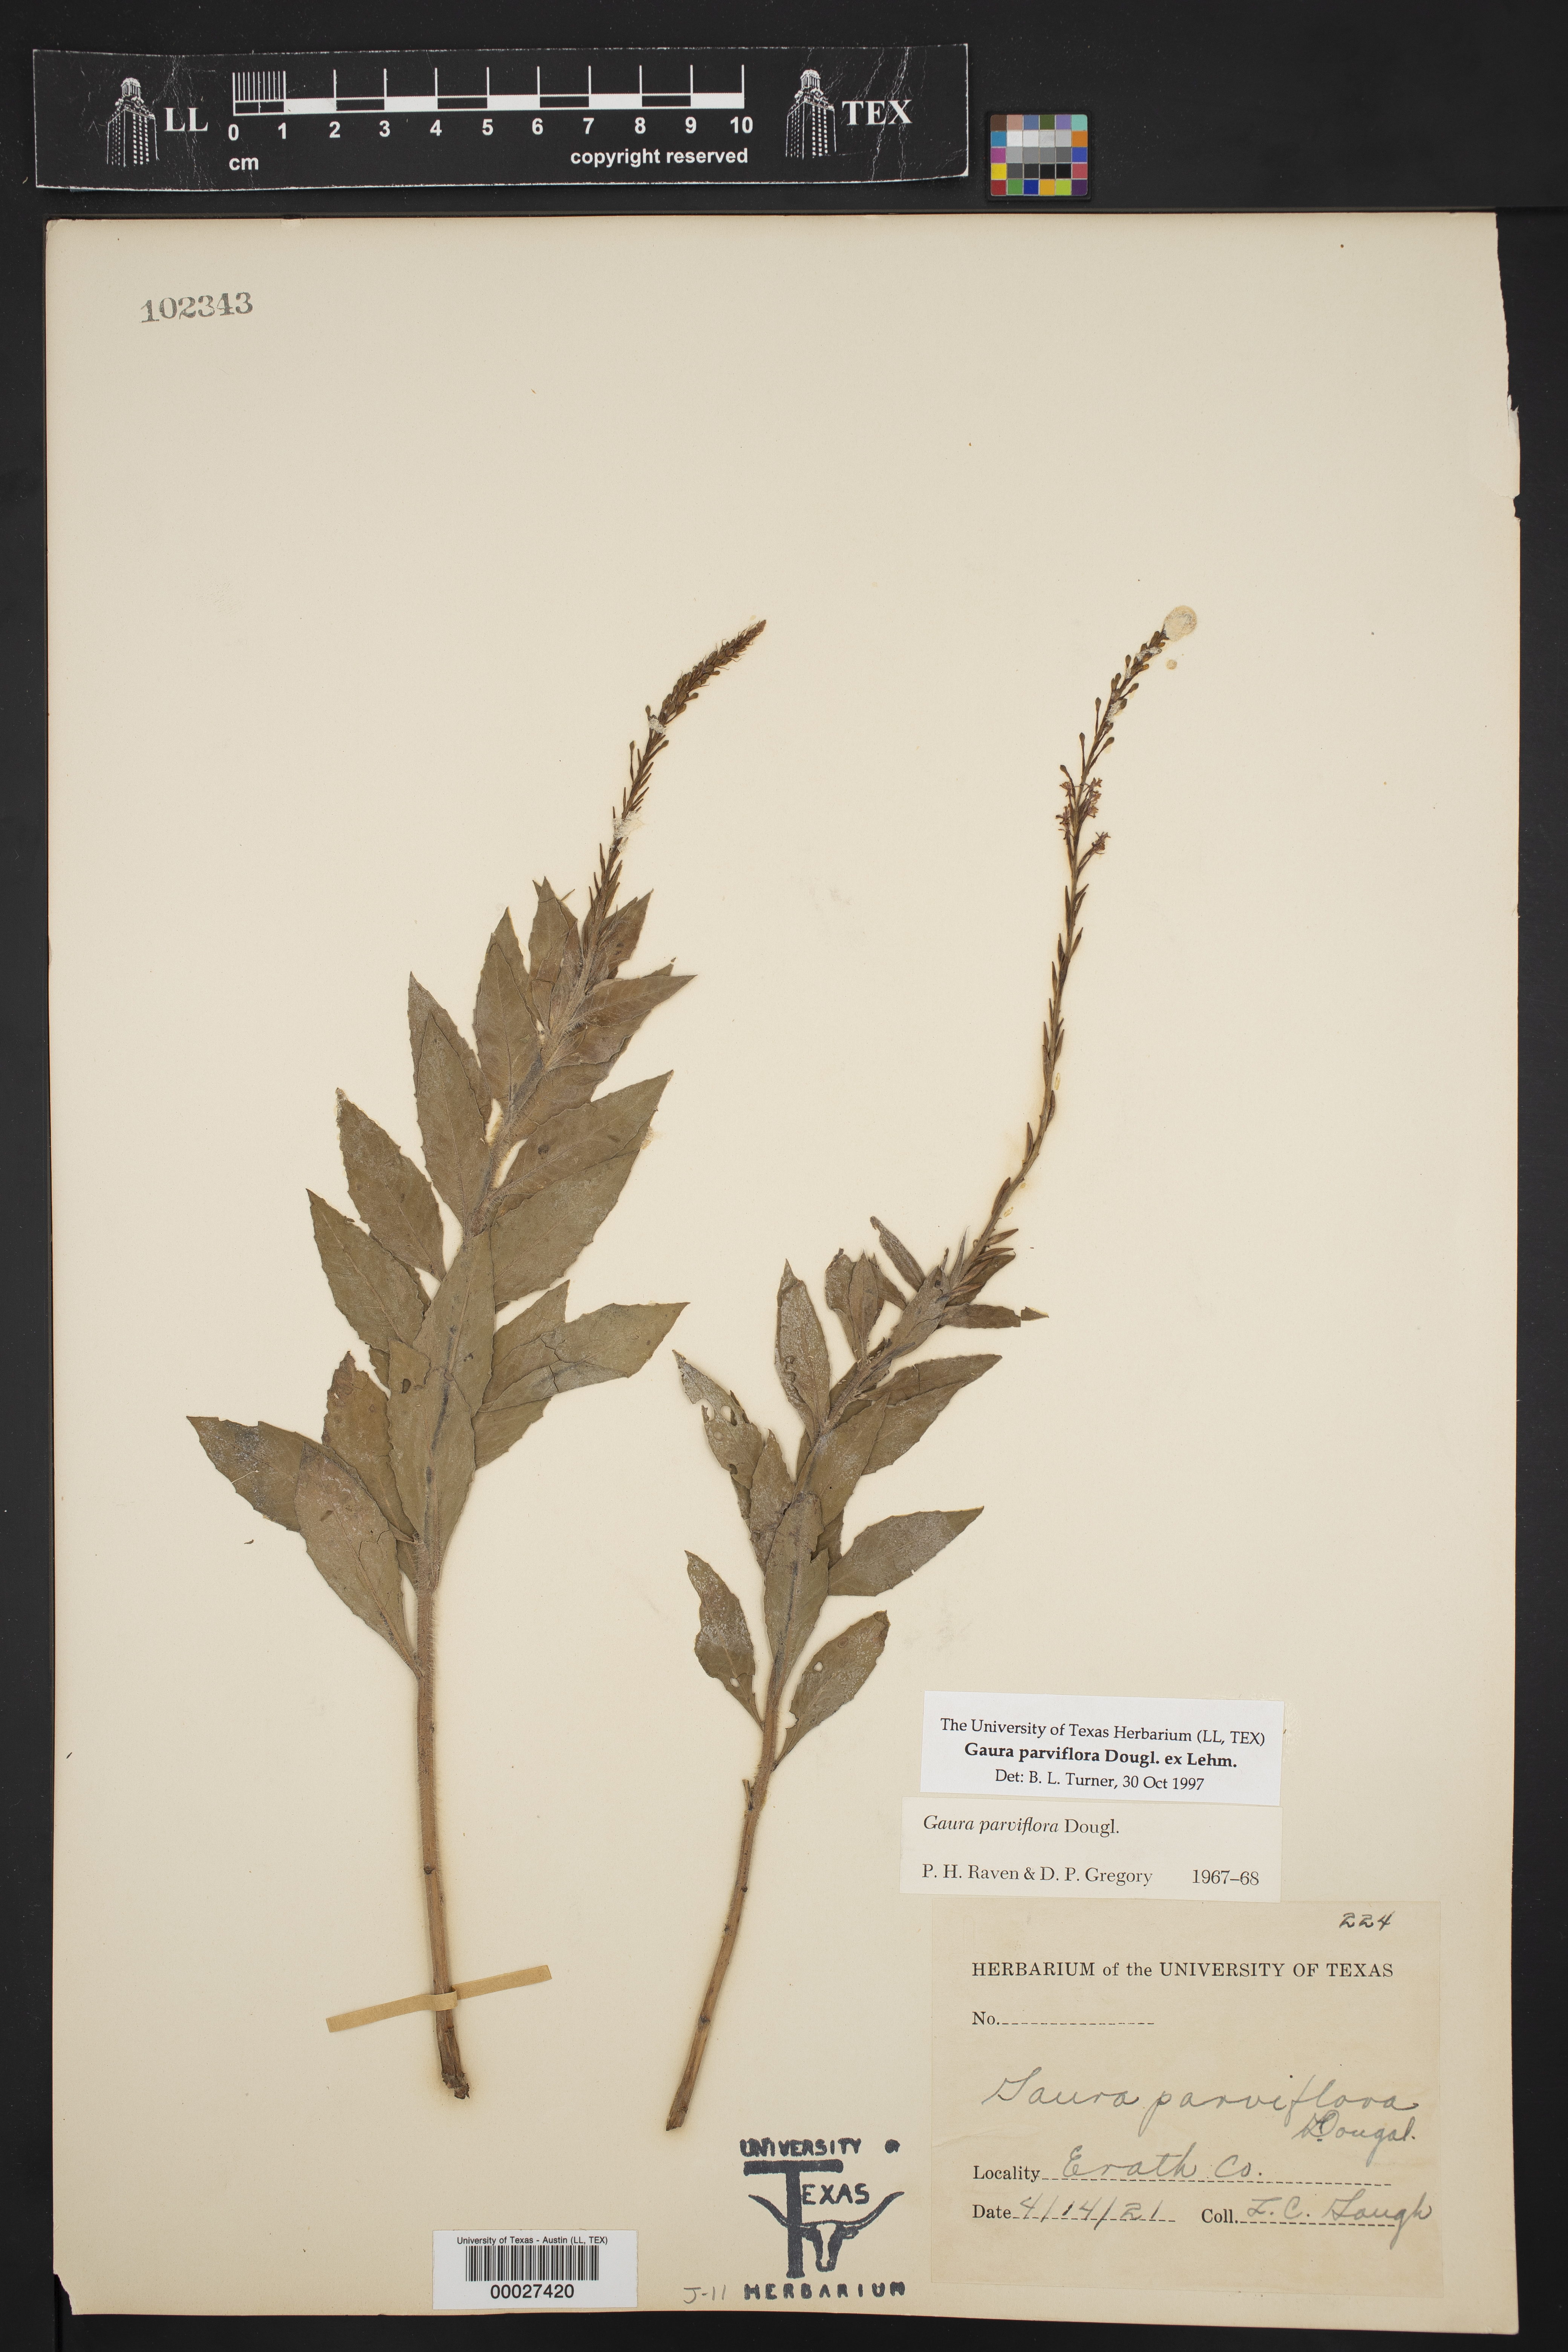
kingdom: Plantae
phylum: Tracheophyta
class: Magnoliopsida
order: Myrtales
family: Onagraceae
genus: Oenothera
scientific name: Oenothera curtiflora
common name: Velvetweed
